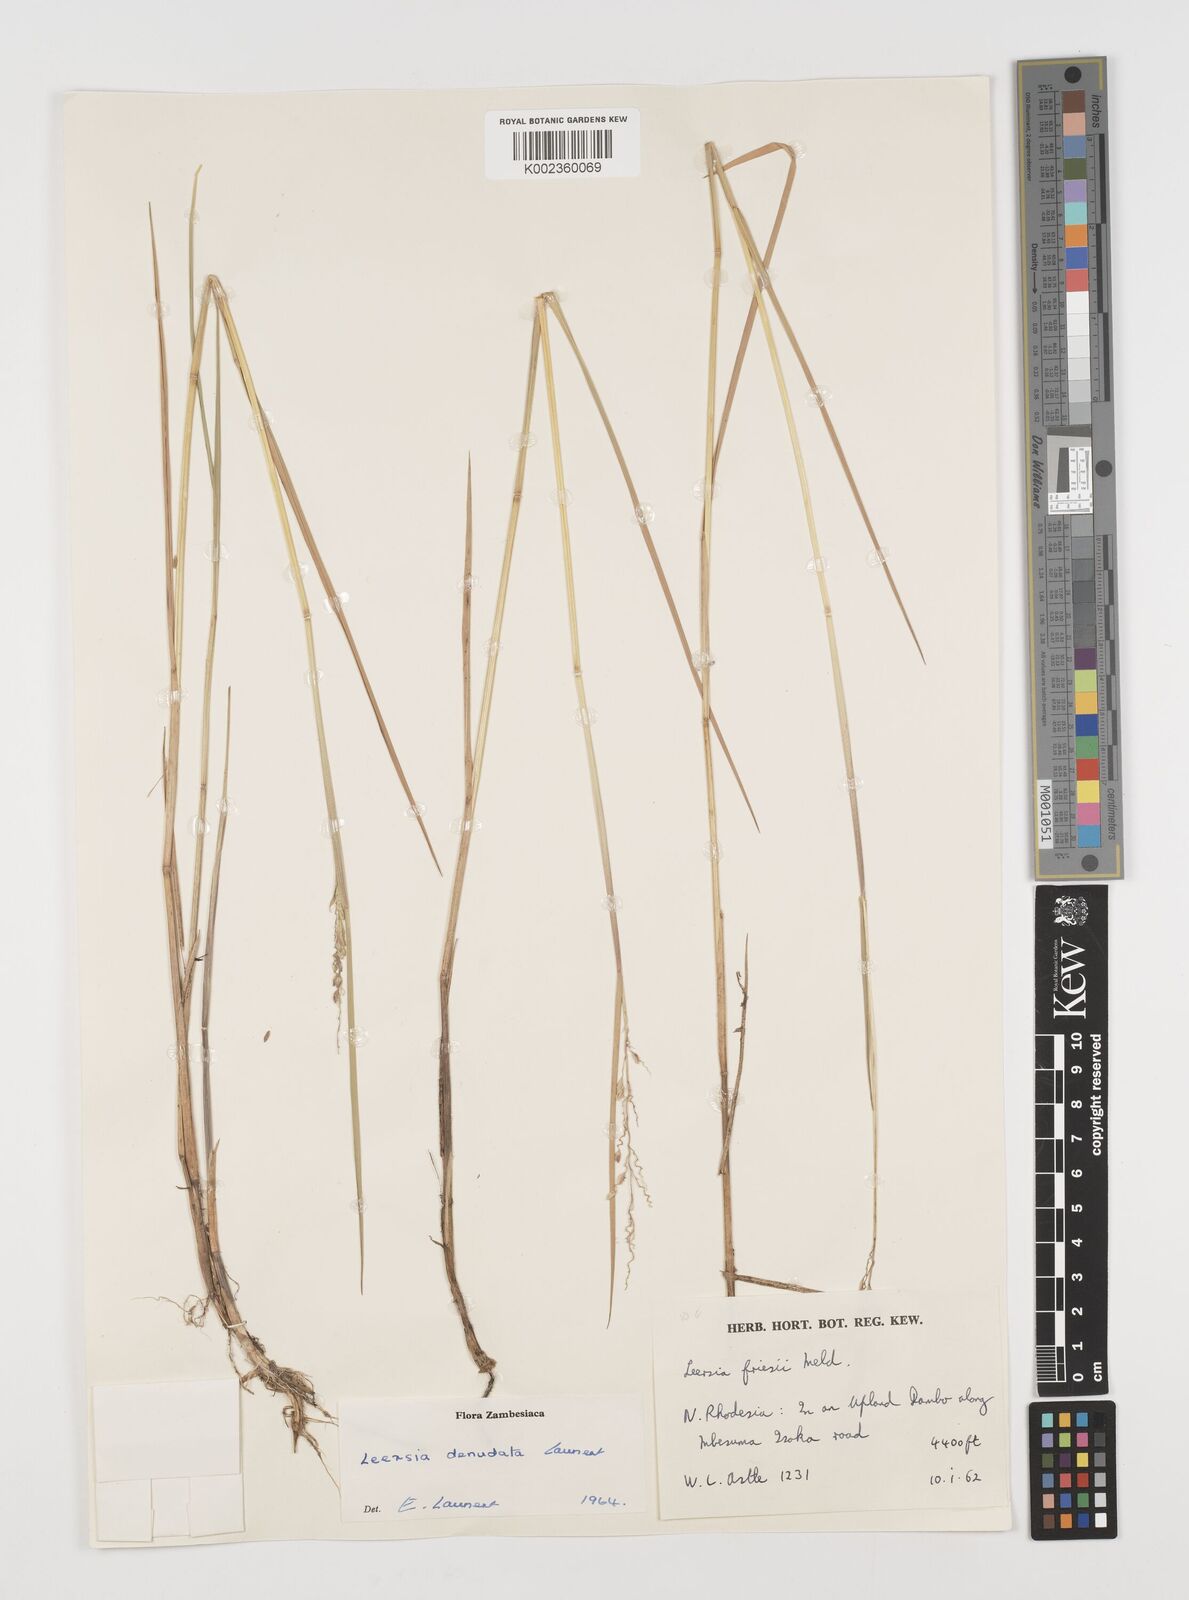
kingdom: Plantae
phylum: Tracheophyta
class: Liliopsida
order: Poales
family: Poaceae
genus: Leersia
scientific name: Leersia denudata
